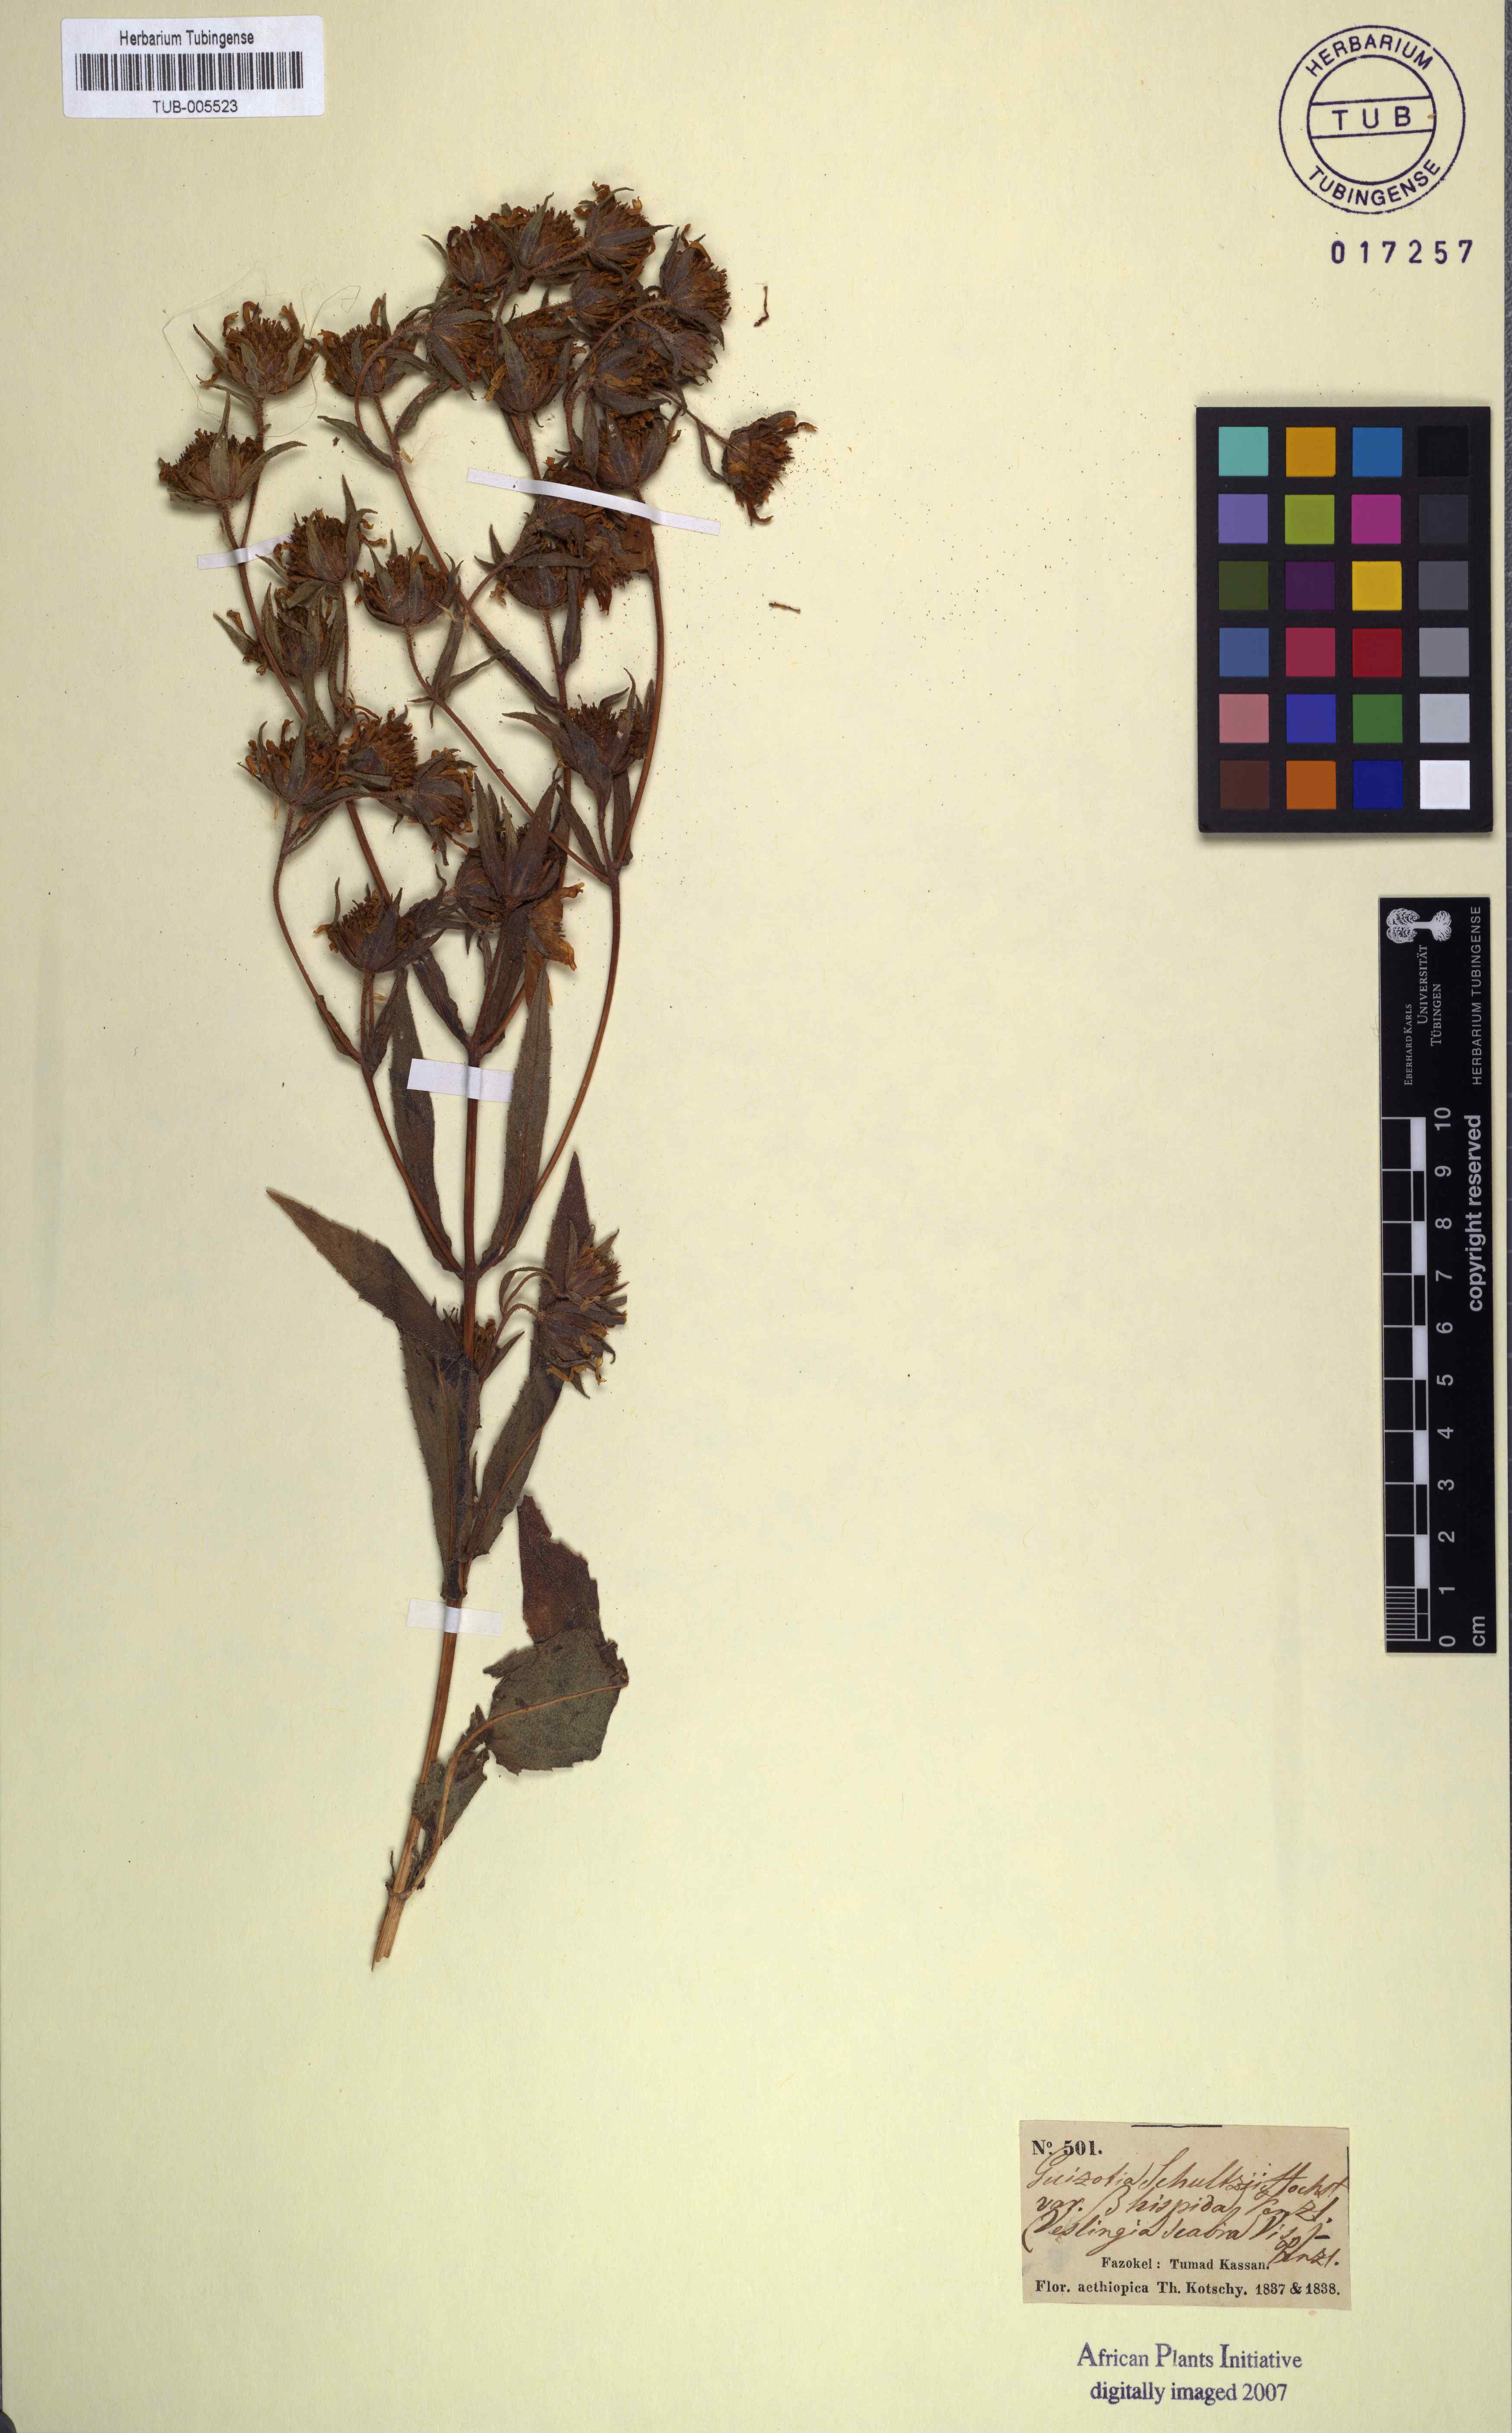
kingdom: Plantae
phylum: Tracheophyta
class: Magnoliopsida
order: Asterales
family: Asteraceae
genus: Guizotia
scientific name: Guizotia scabra
